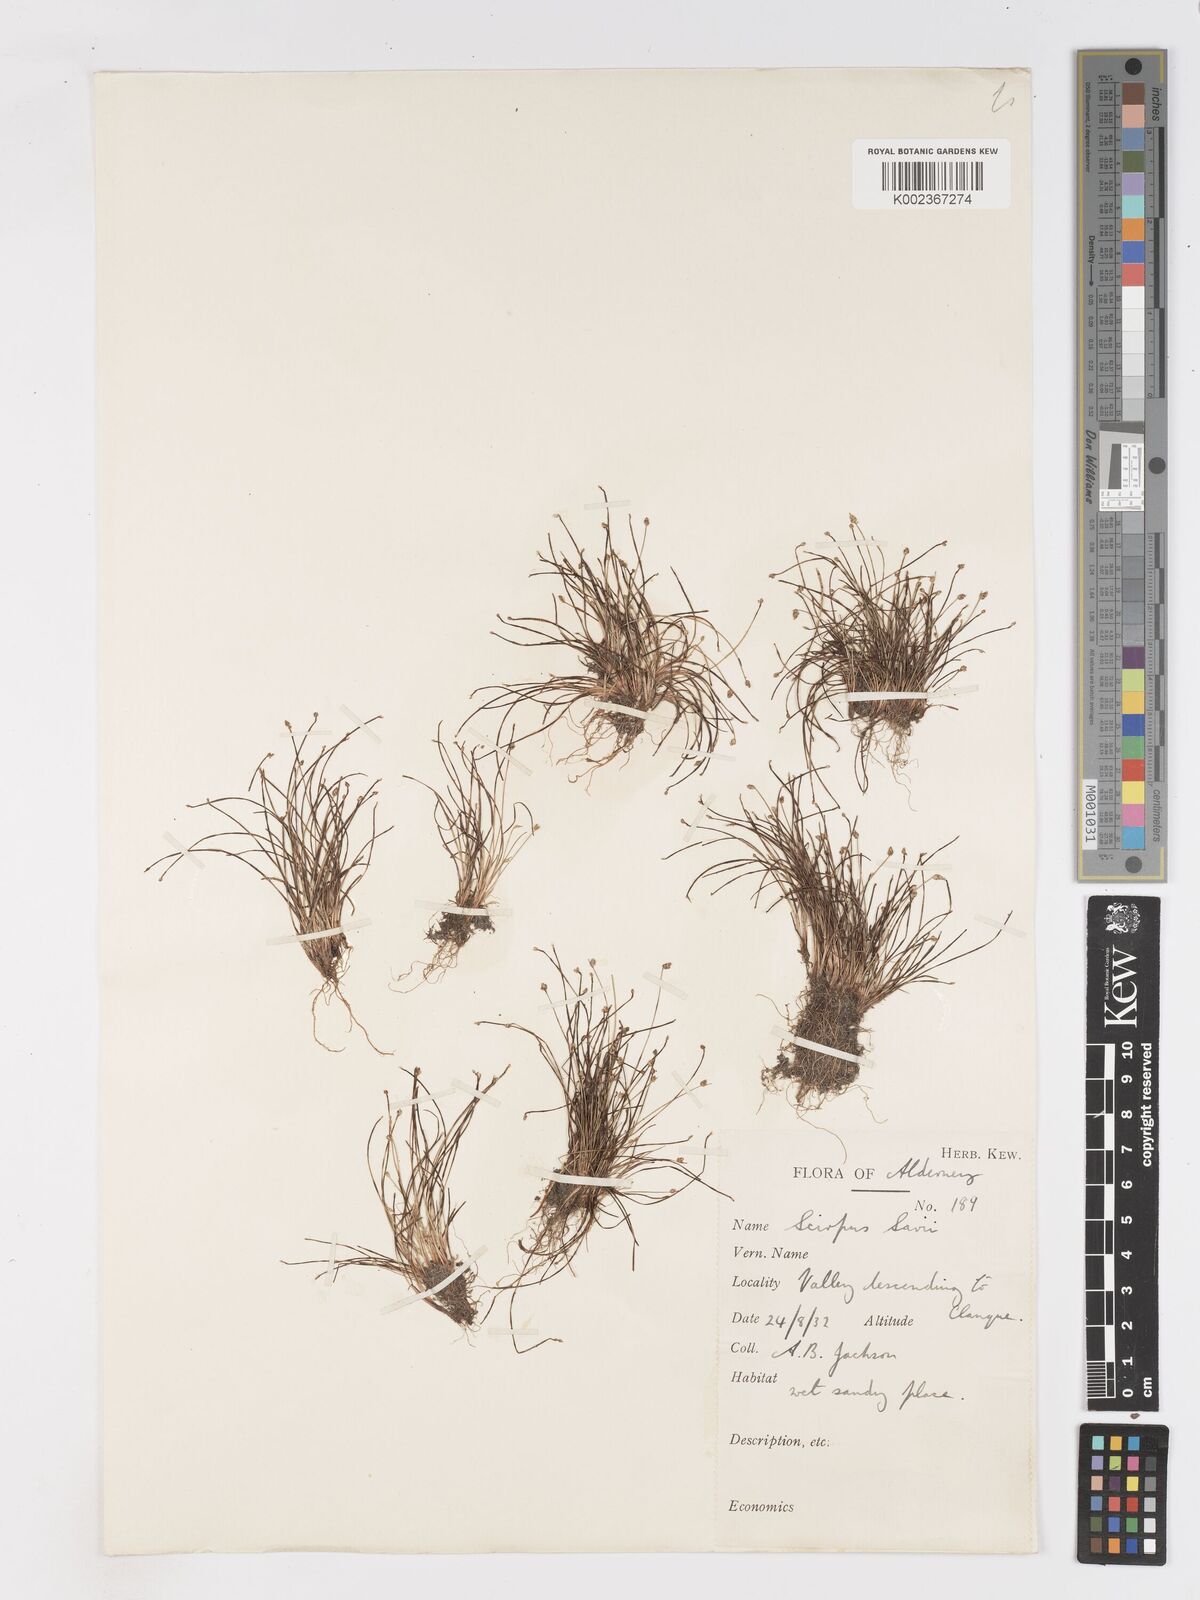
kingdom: Plantae
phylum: Tracheophyta
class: Liliopsida
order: Poales
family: Cyperaceae
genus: Isolepis
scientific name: Isolepis cernua
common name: Slender club-rush
